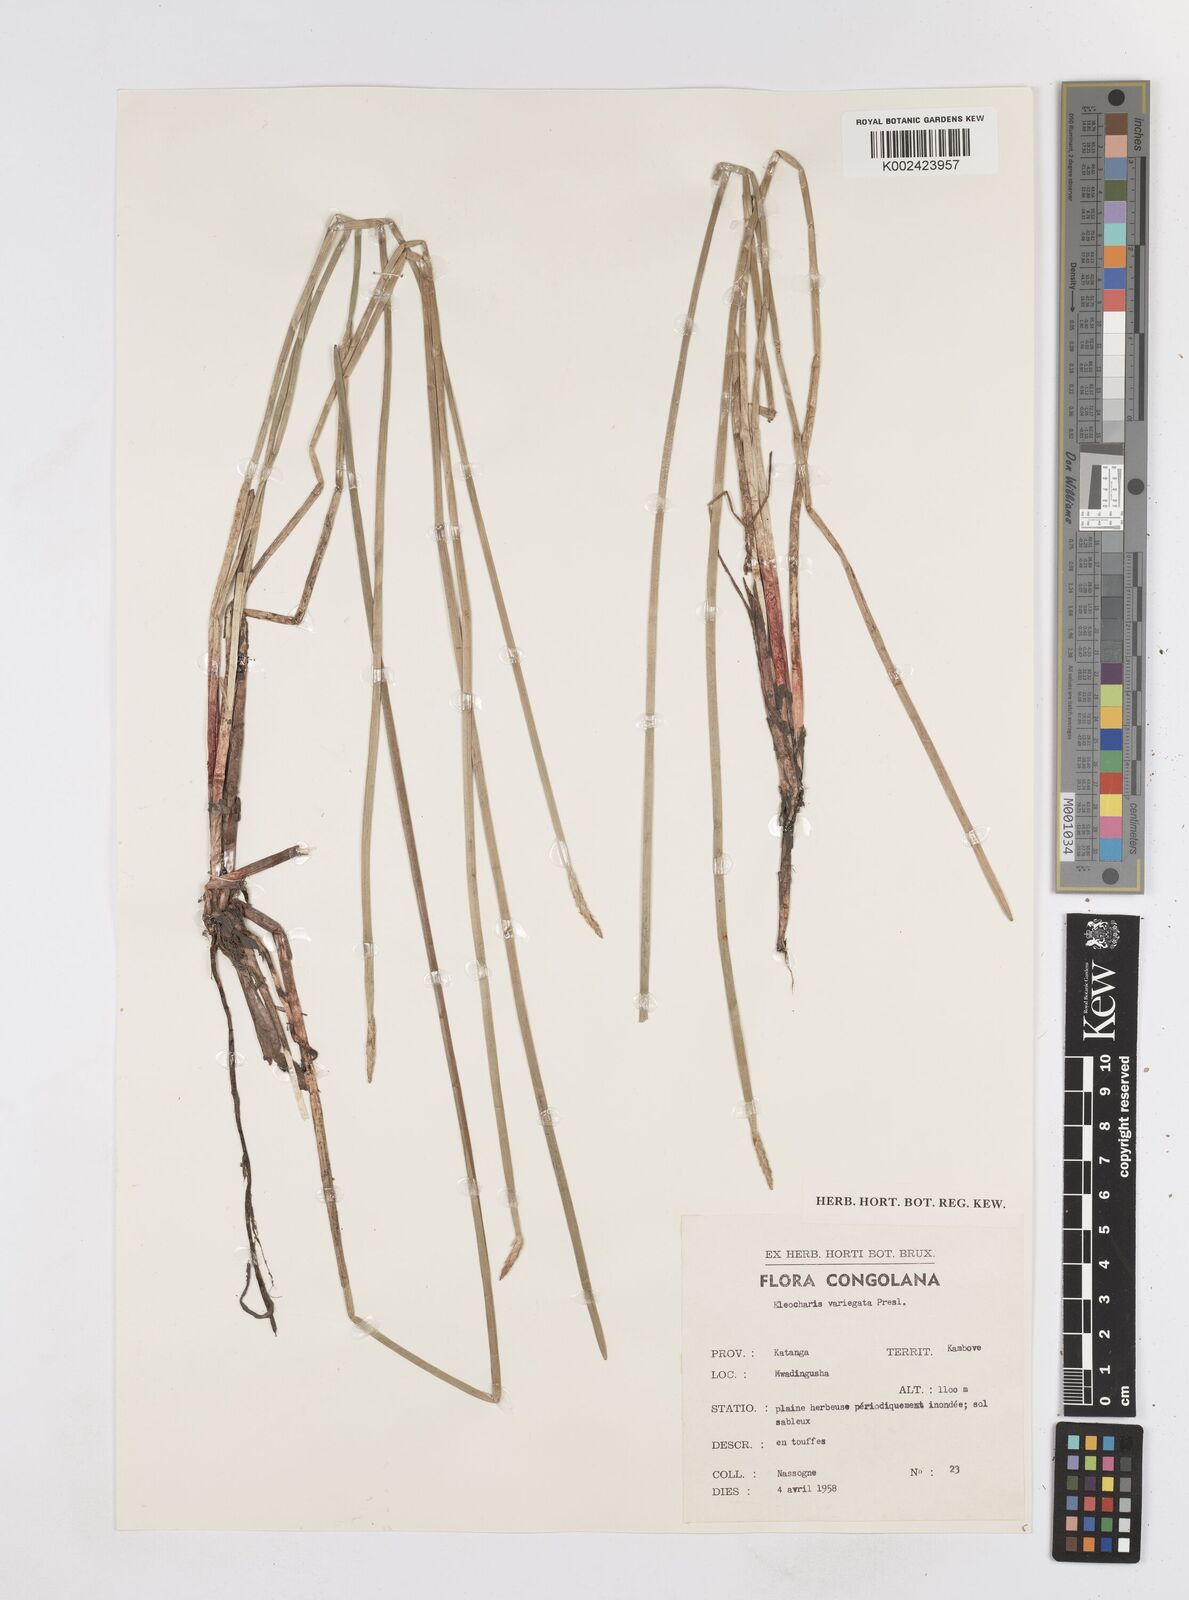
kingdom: Plantae
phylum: Tracheophyta
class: Liliopsida
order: Poales
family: Cyperaceae
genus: Eleocharis
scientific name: Eleocharis variegata
